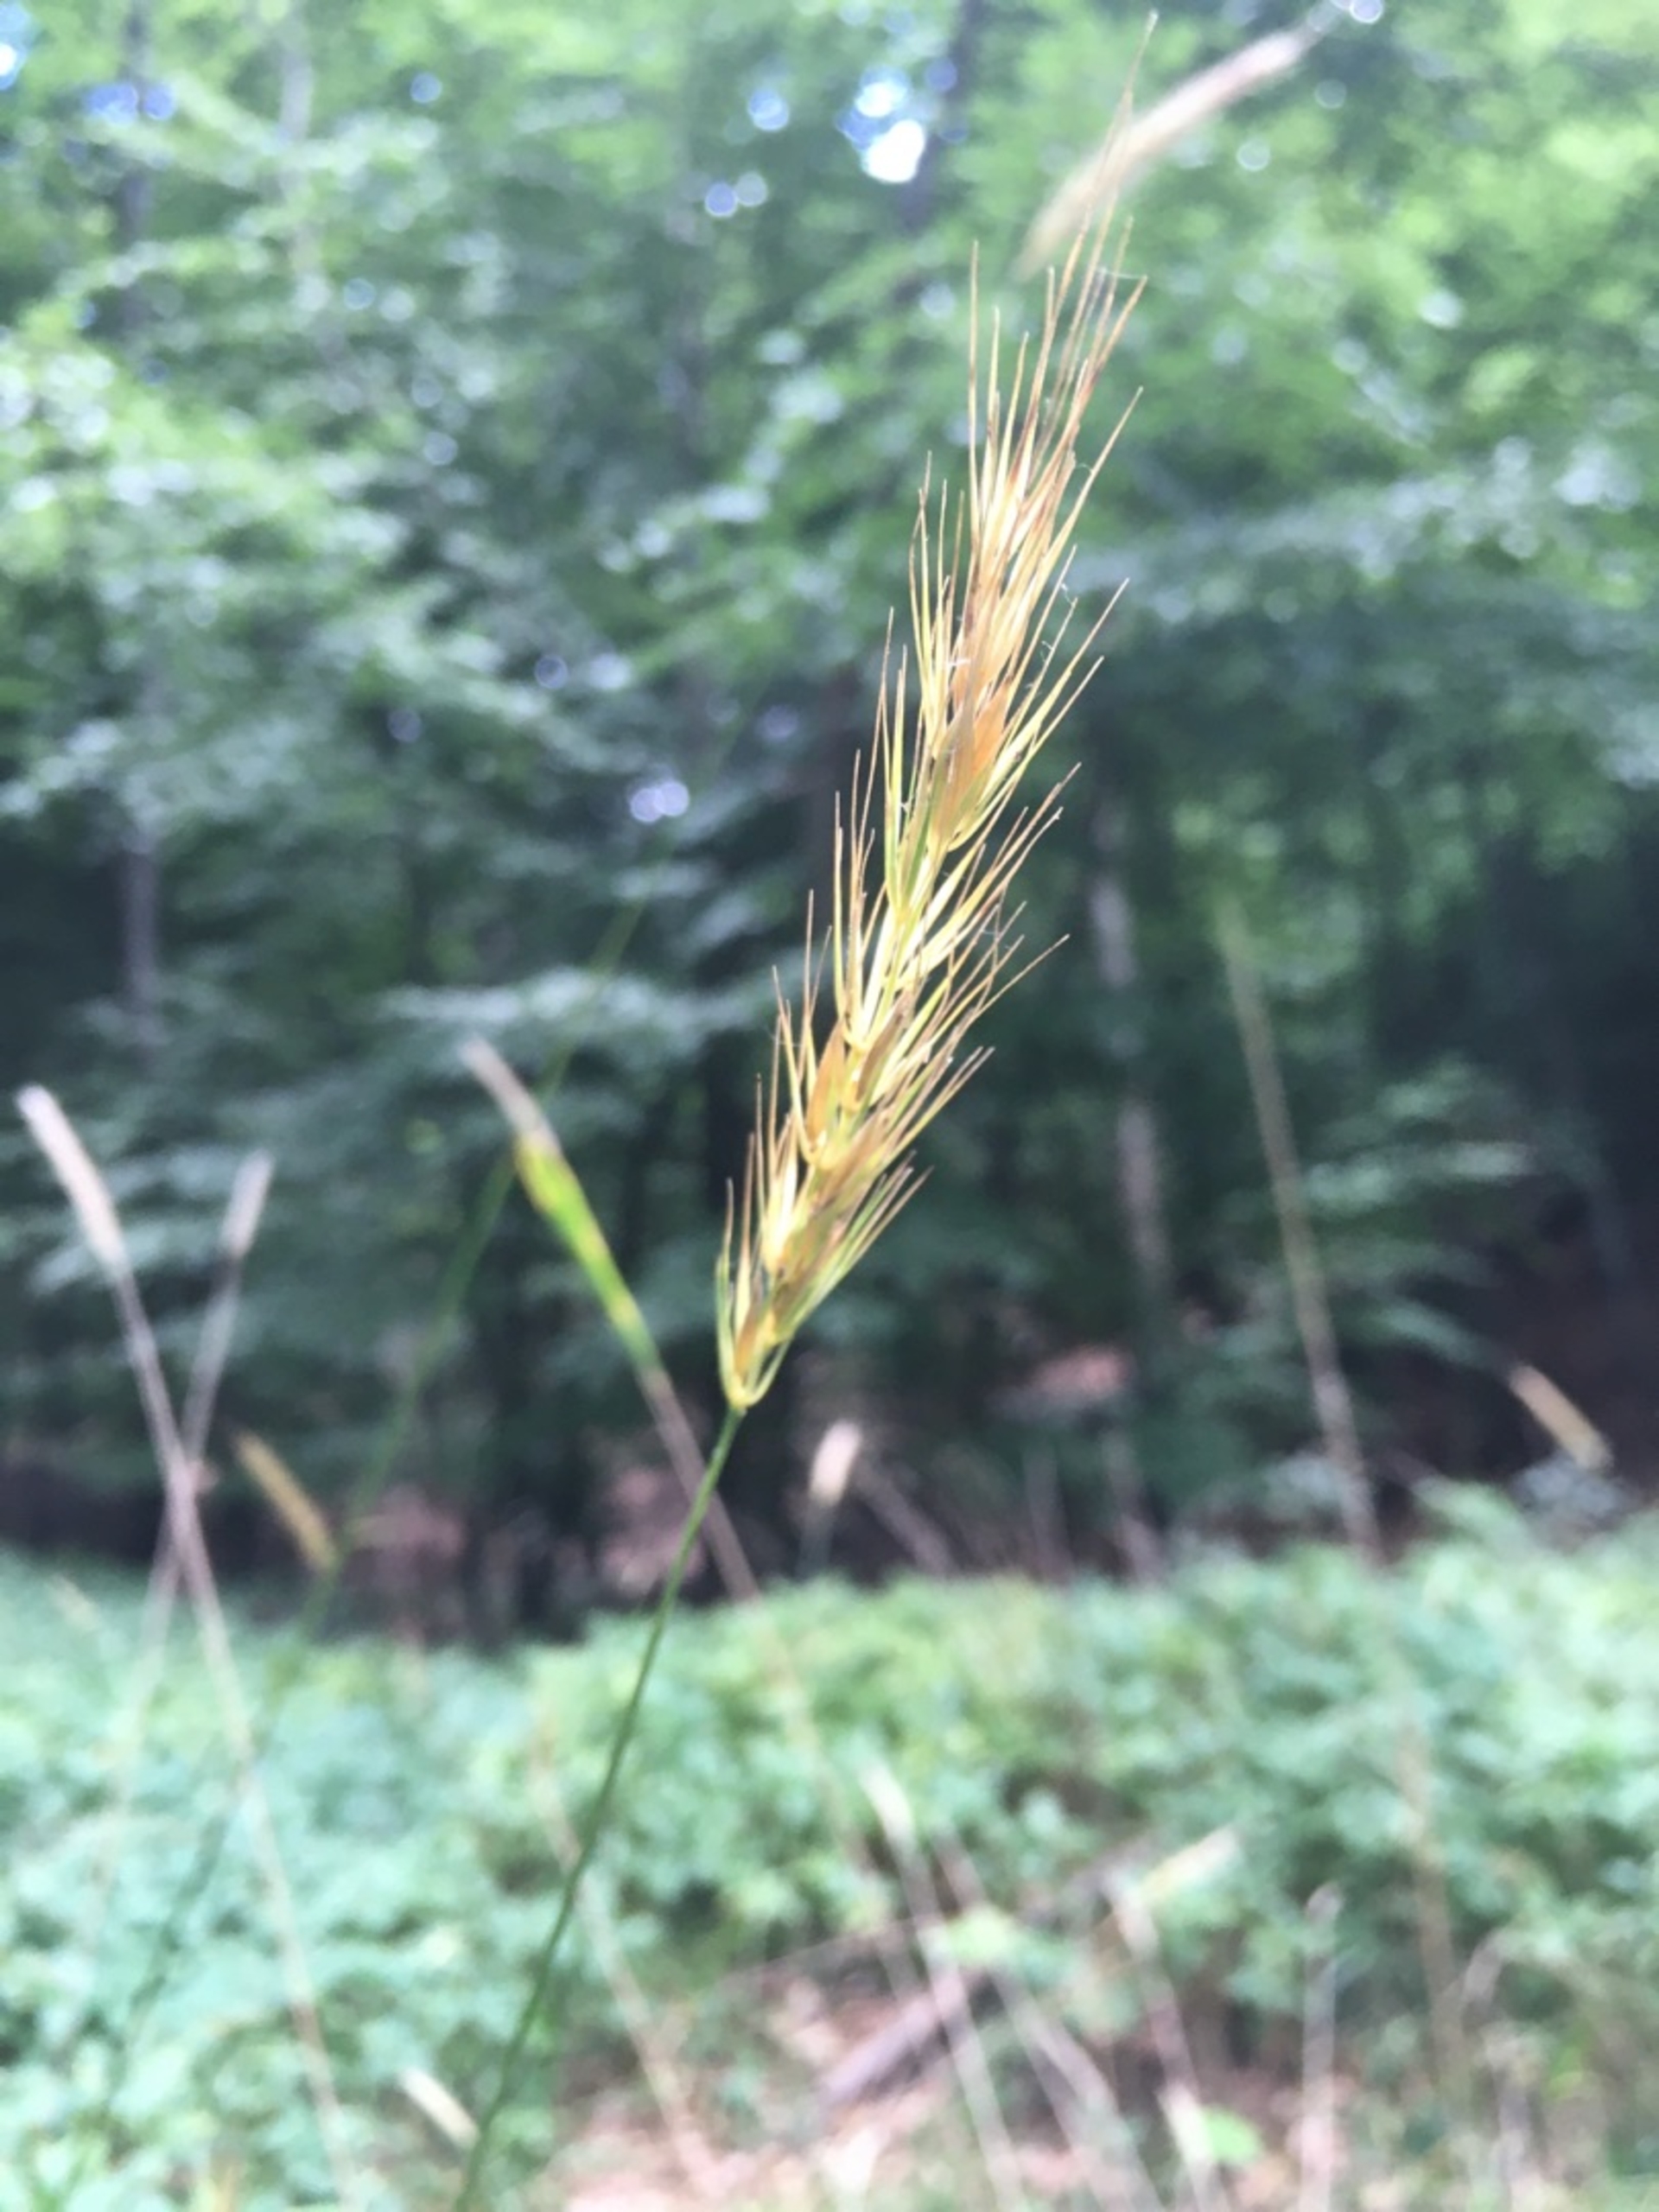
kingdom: Plantae
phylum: Tracheophyta
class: Liliopsida
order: Poales
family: Poaceae
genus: Hordelymus
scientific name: Hordelymus europaeus
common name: Skovbyg
